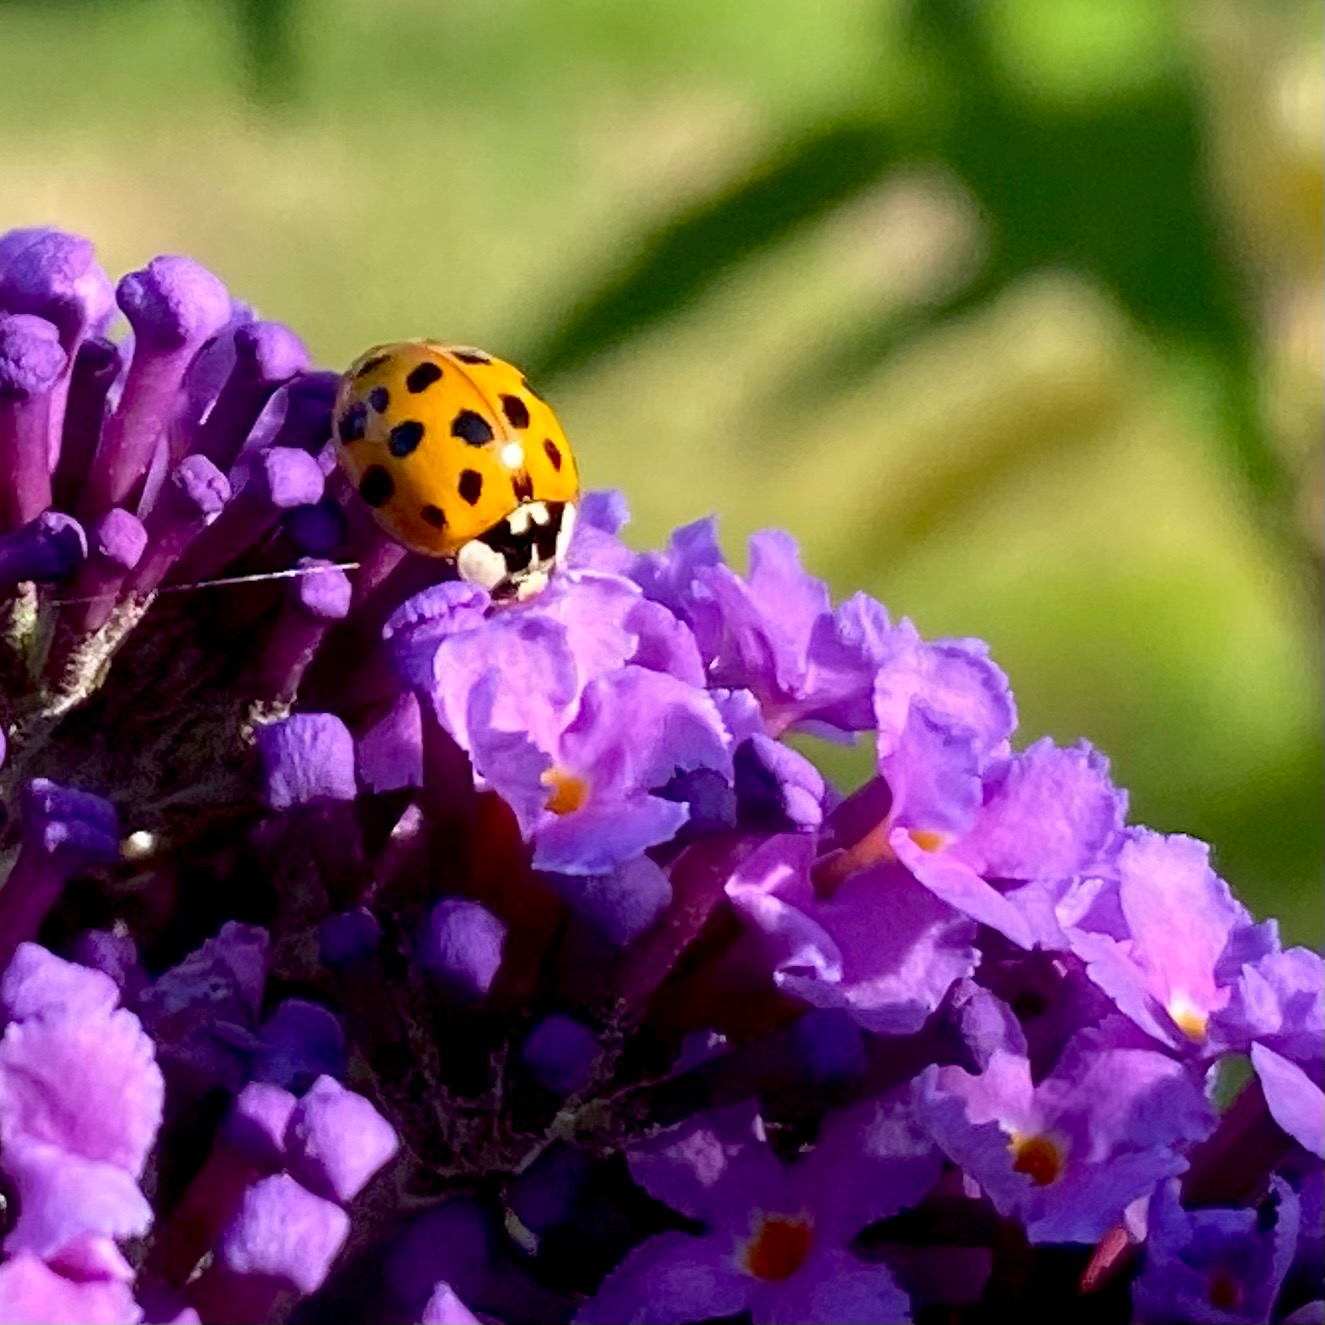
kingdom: Animalia
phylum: Arthropoda
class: Insecta
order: Coleoptera
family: Coccinellidae
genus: Harmonia
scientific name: Harmonia axyridis
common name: Harlekinmariehøne
